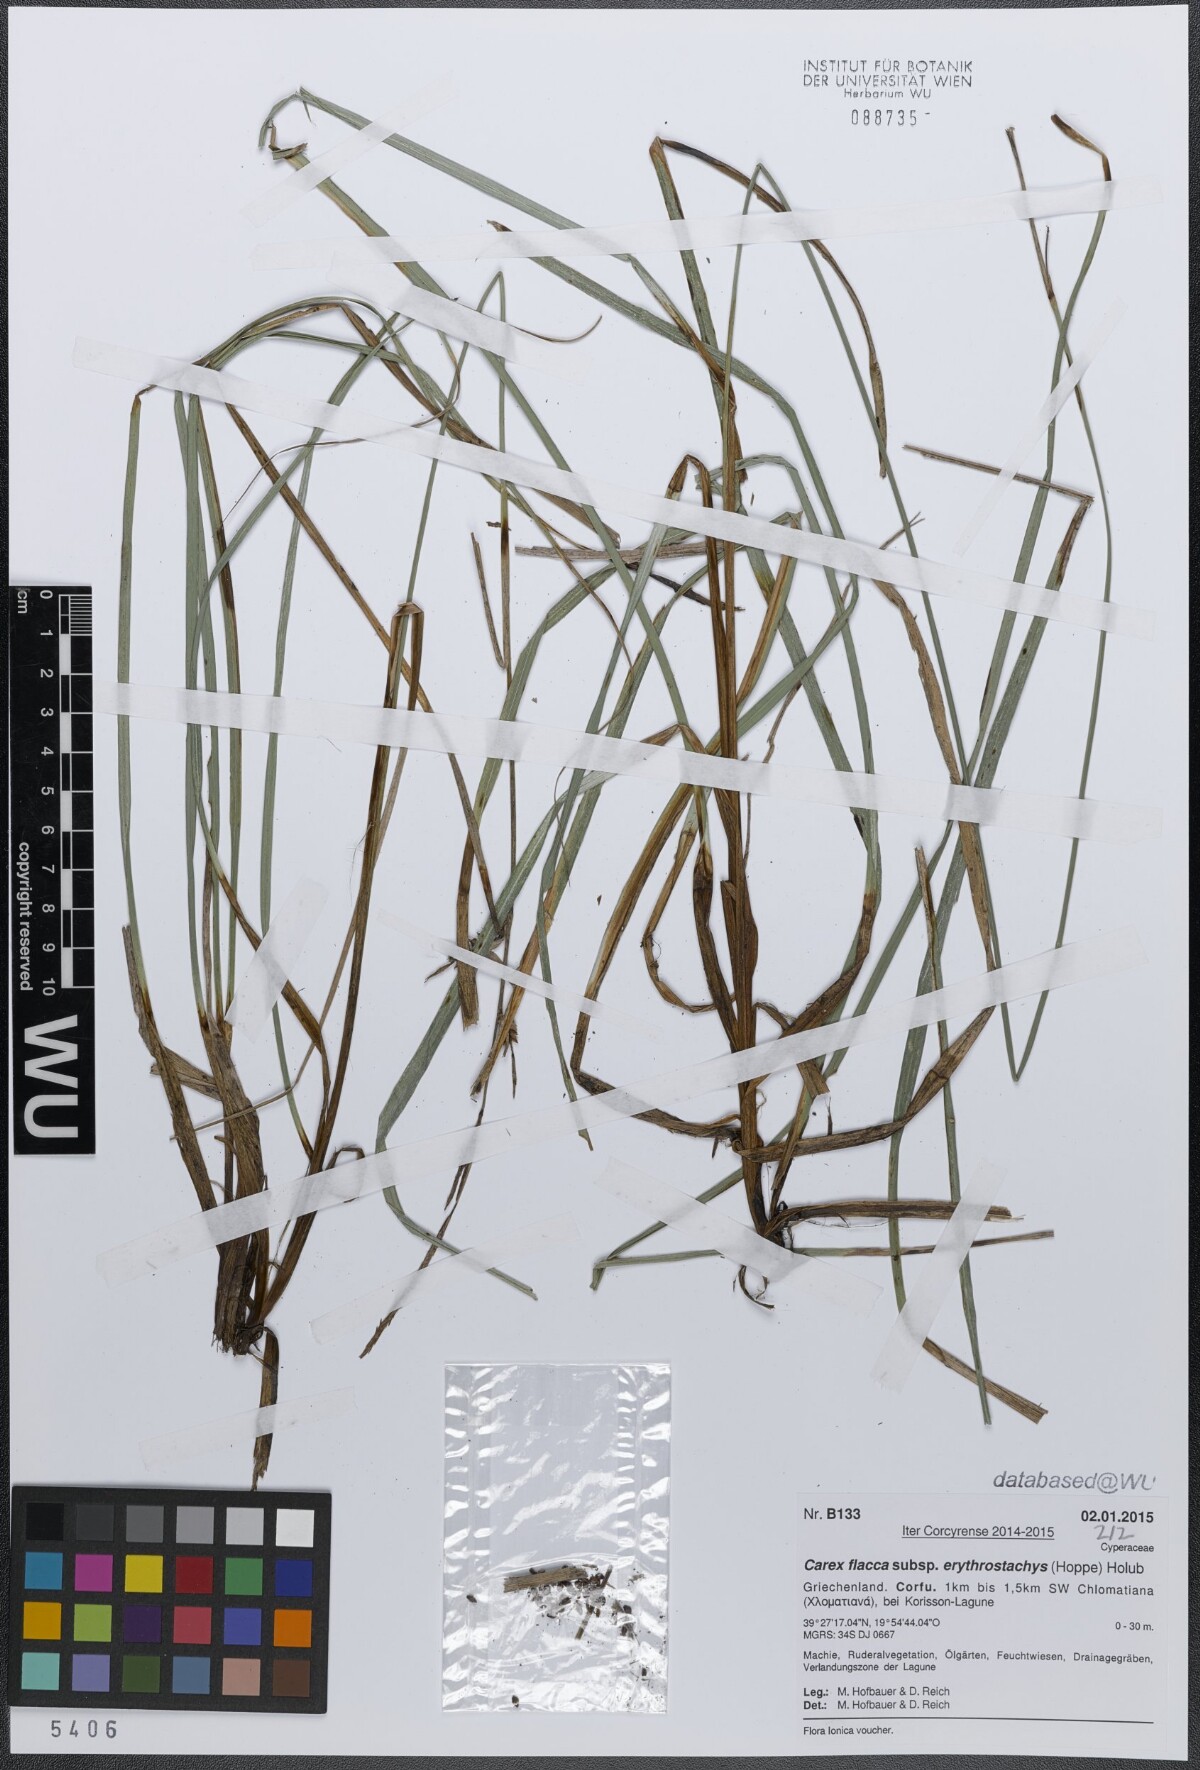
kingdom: Plantae
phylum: Tracheophyta
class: Liliopsida
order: Poales
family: Cyperaceae
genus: Carex
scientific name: Carex flacca
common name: Glaucous sedge
